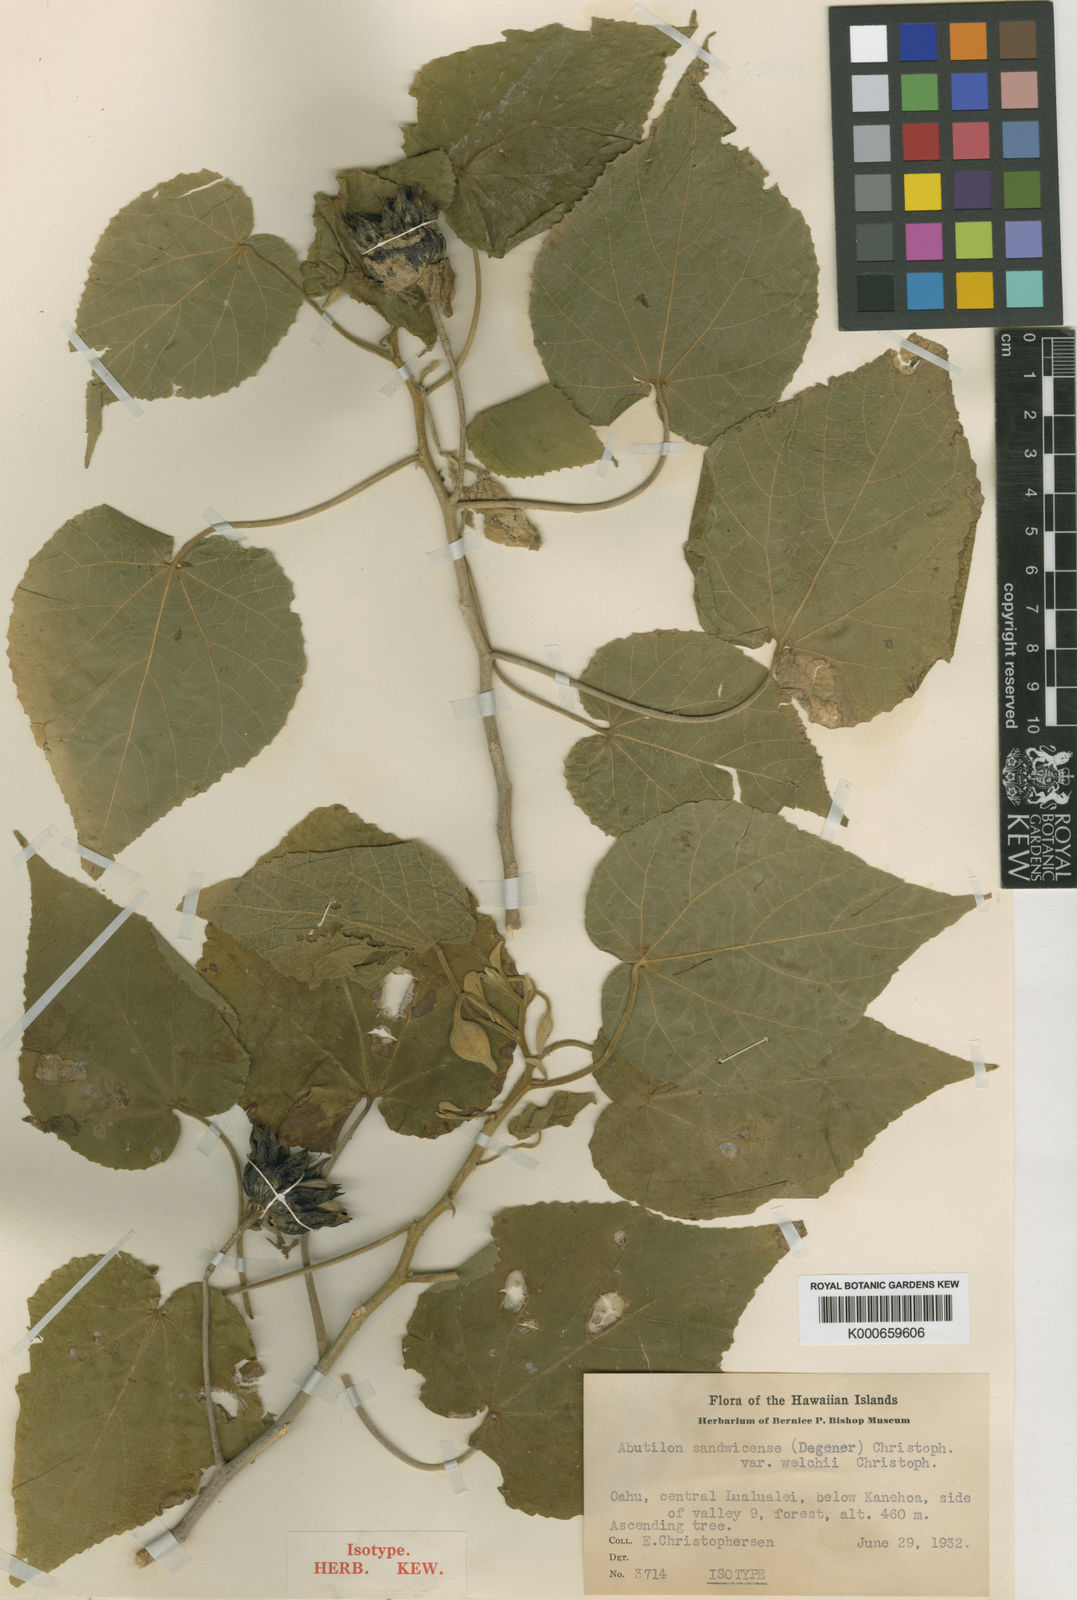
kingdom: Plantae
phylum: Tracheophyta
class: Magnoliopsida
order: Malvales
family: Malvaceae
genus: Abutilon
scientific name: Abutilon sandwicense
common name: Greenflower indian mallow
